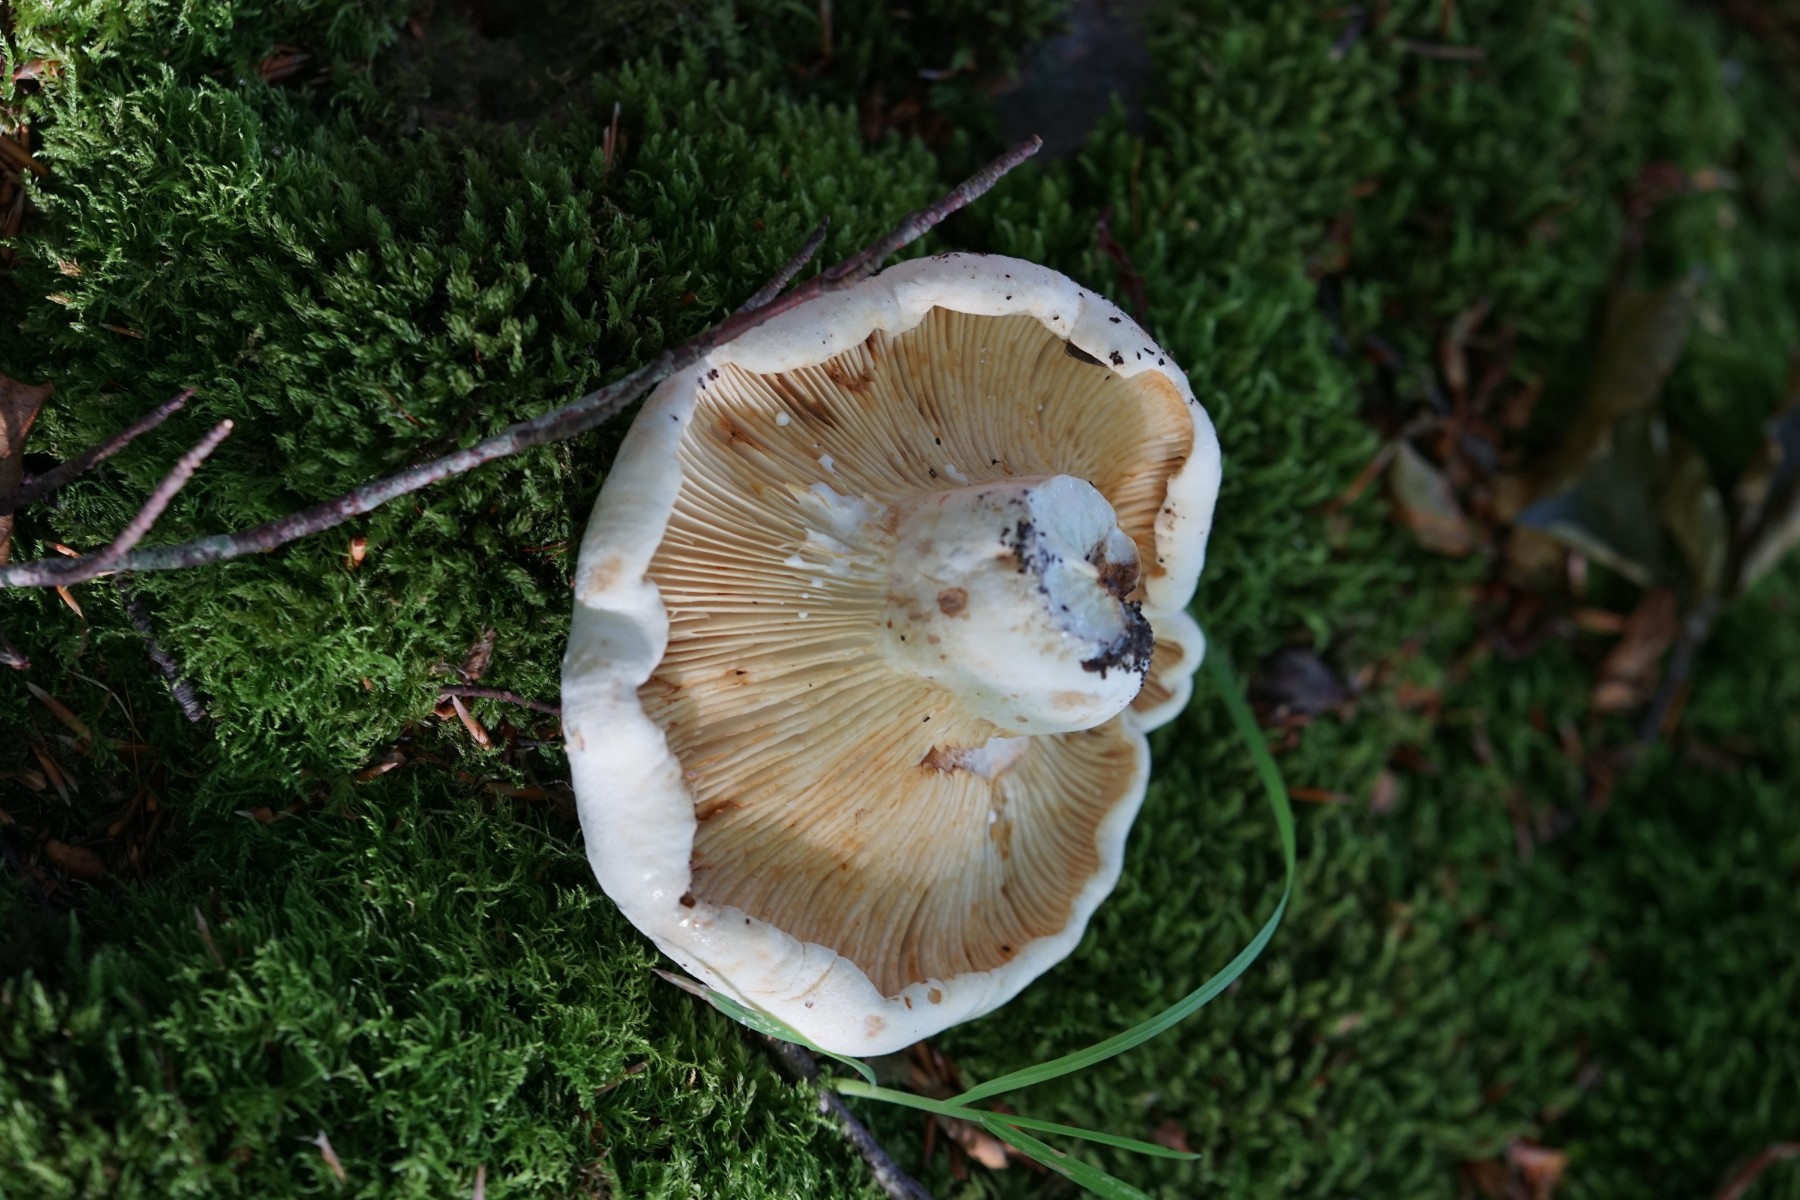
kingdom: Fungi
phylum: Basidiomycota
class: Agaricomycetes
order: Russulales
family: Russulaceae
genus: Lactifluus
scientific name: Lactifluus bertillonii
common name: blødfiltet mælkehat
